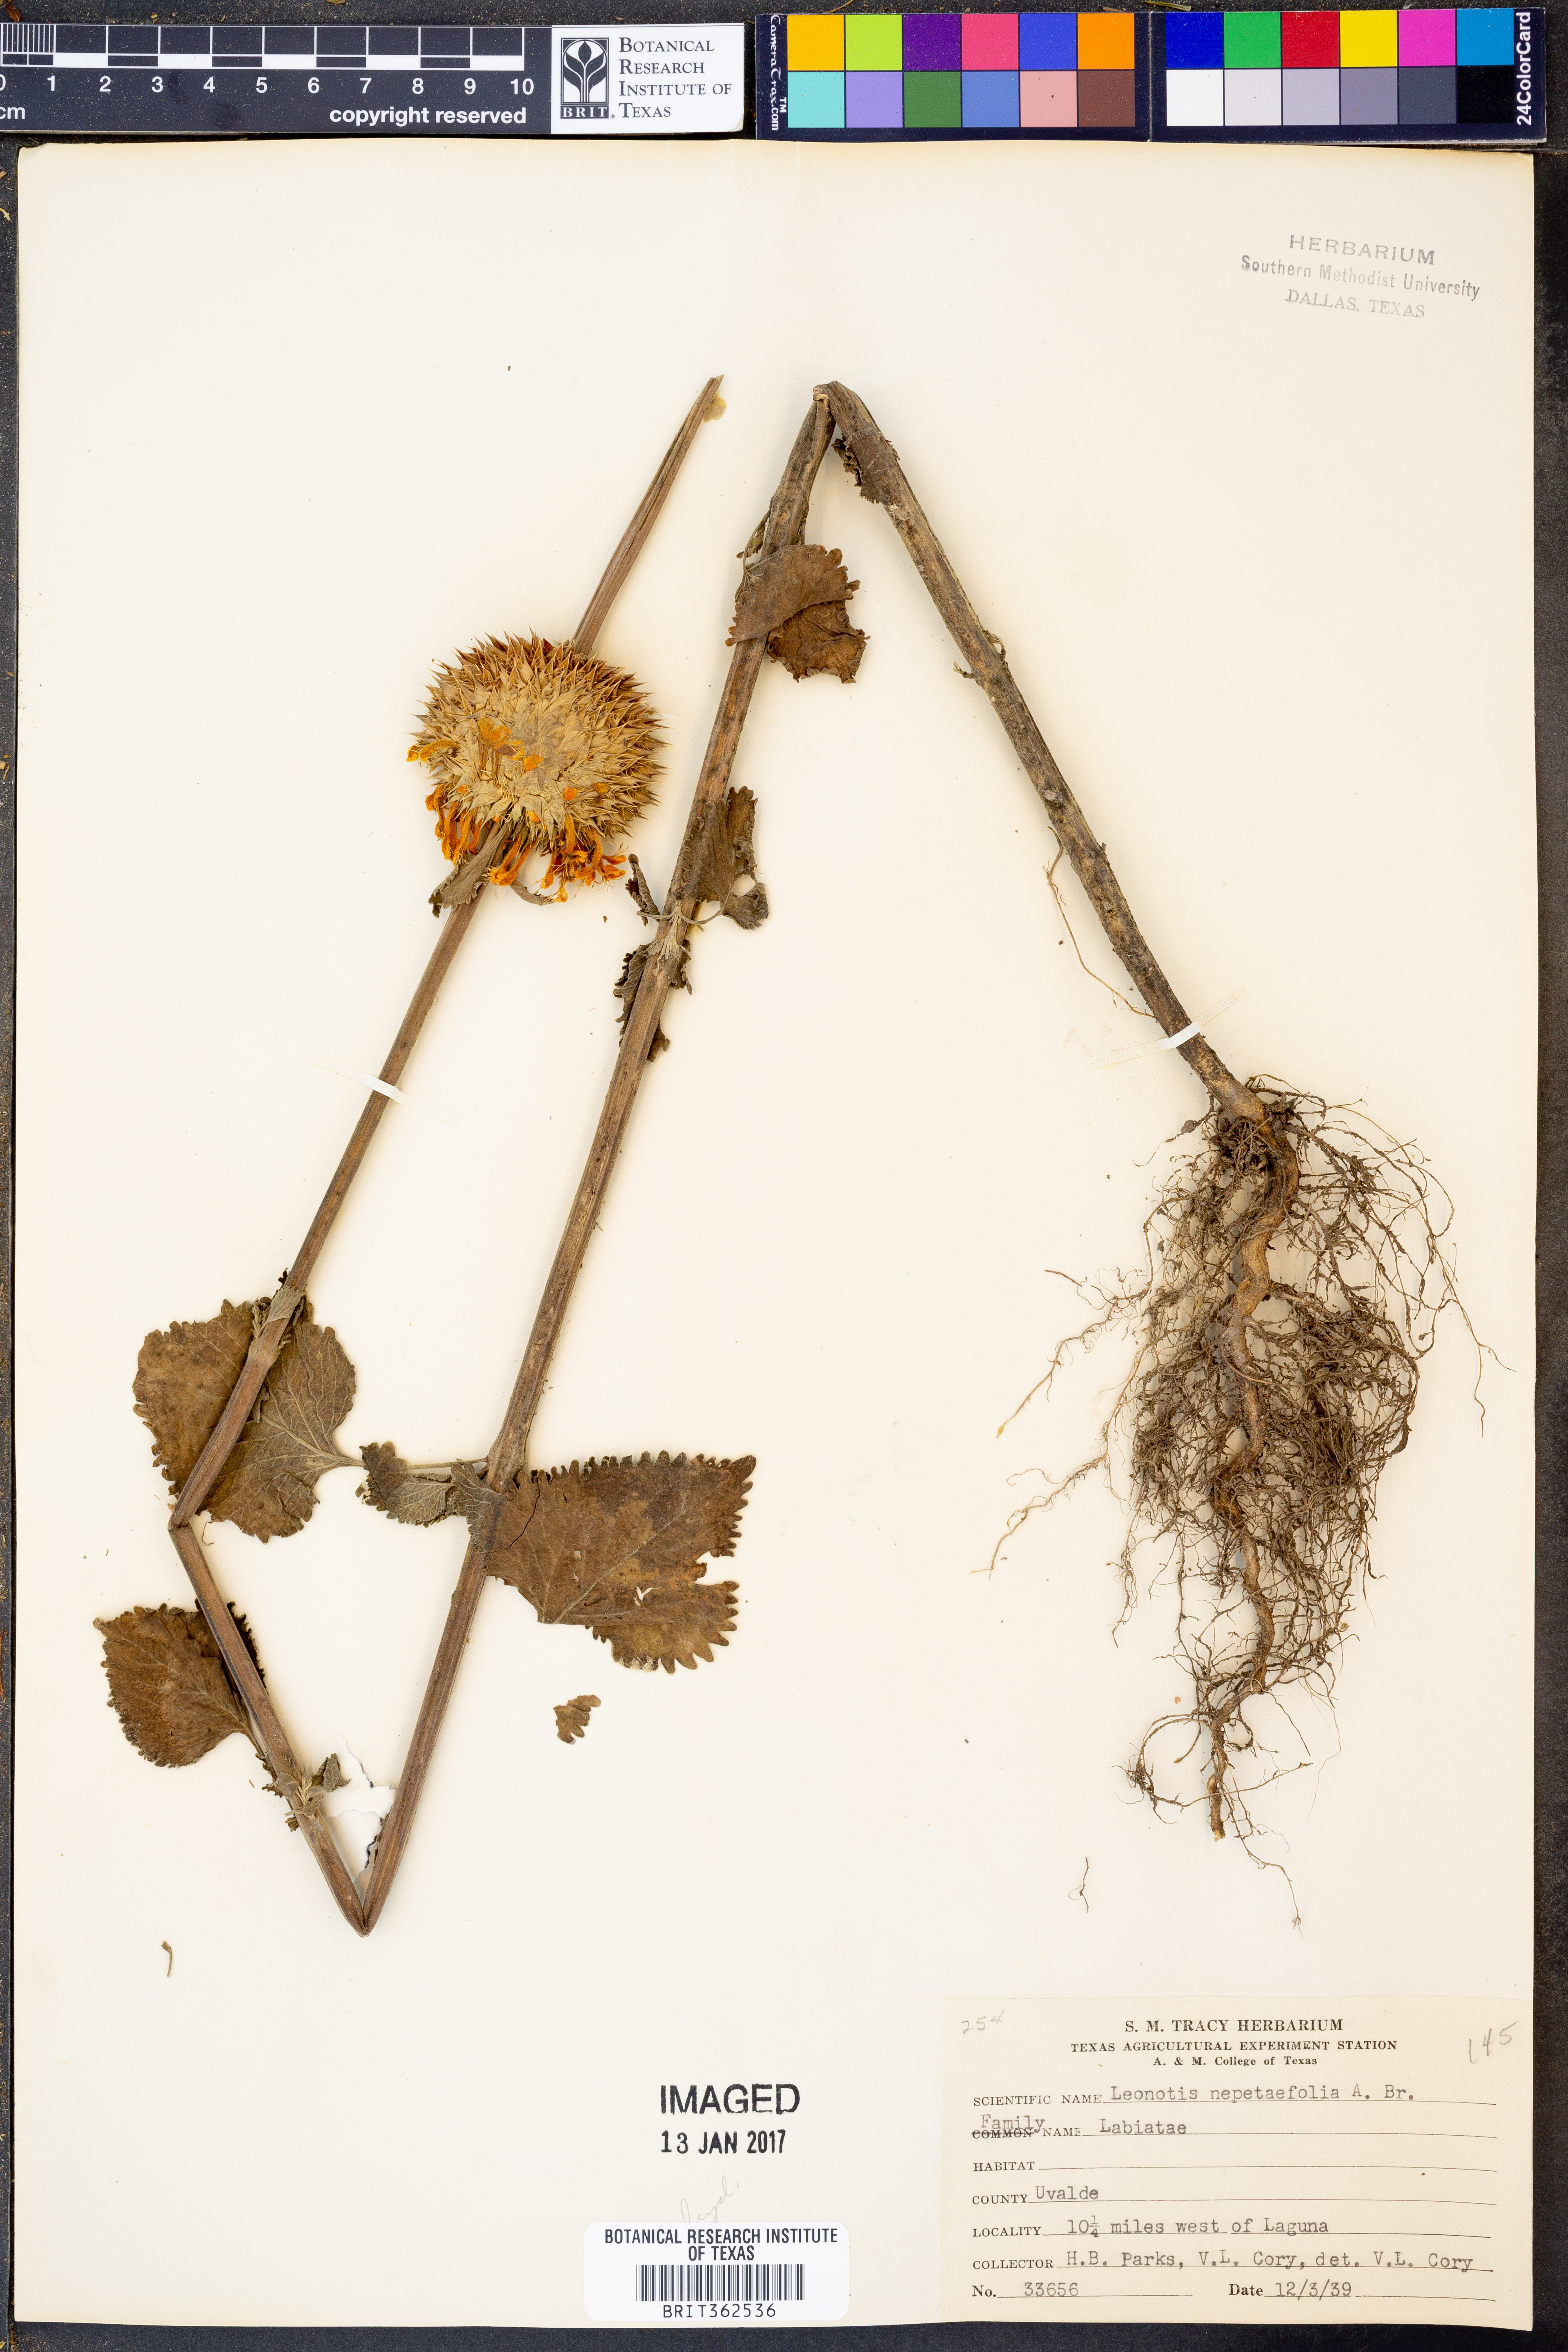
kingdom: Plantae
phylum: Tracheophyta
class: Magnoliopsida
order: Lamiales
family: Lamiaceae
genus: Leonotis
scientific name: Leonotis nepetifolia
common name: Christmas candlestick
